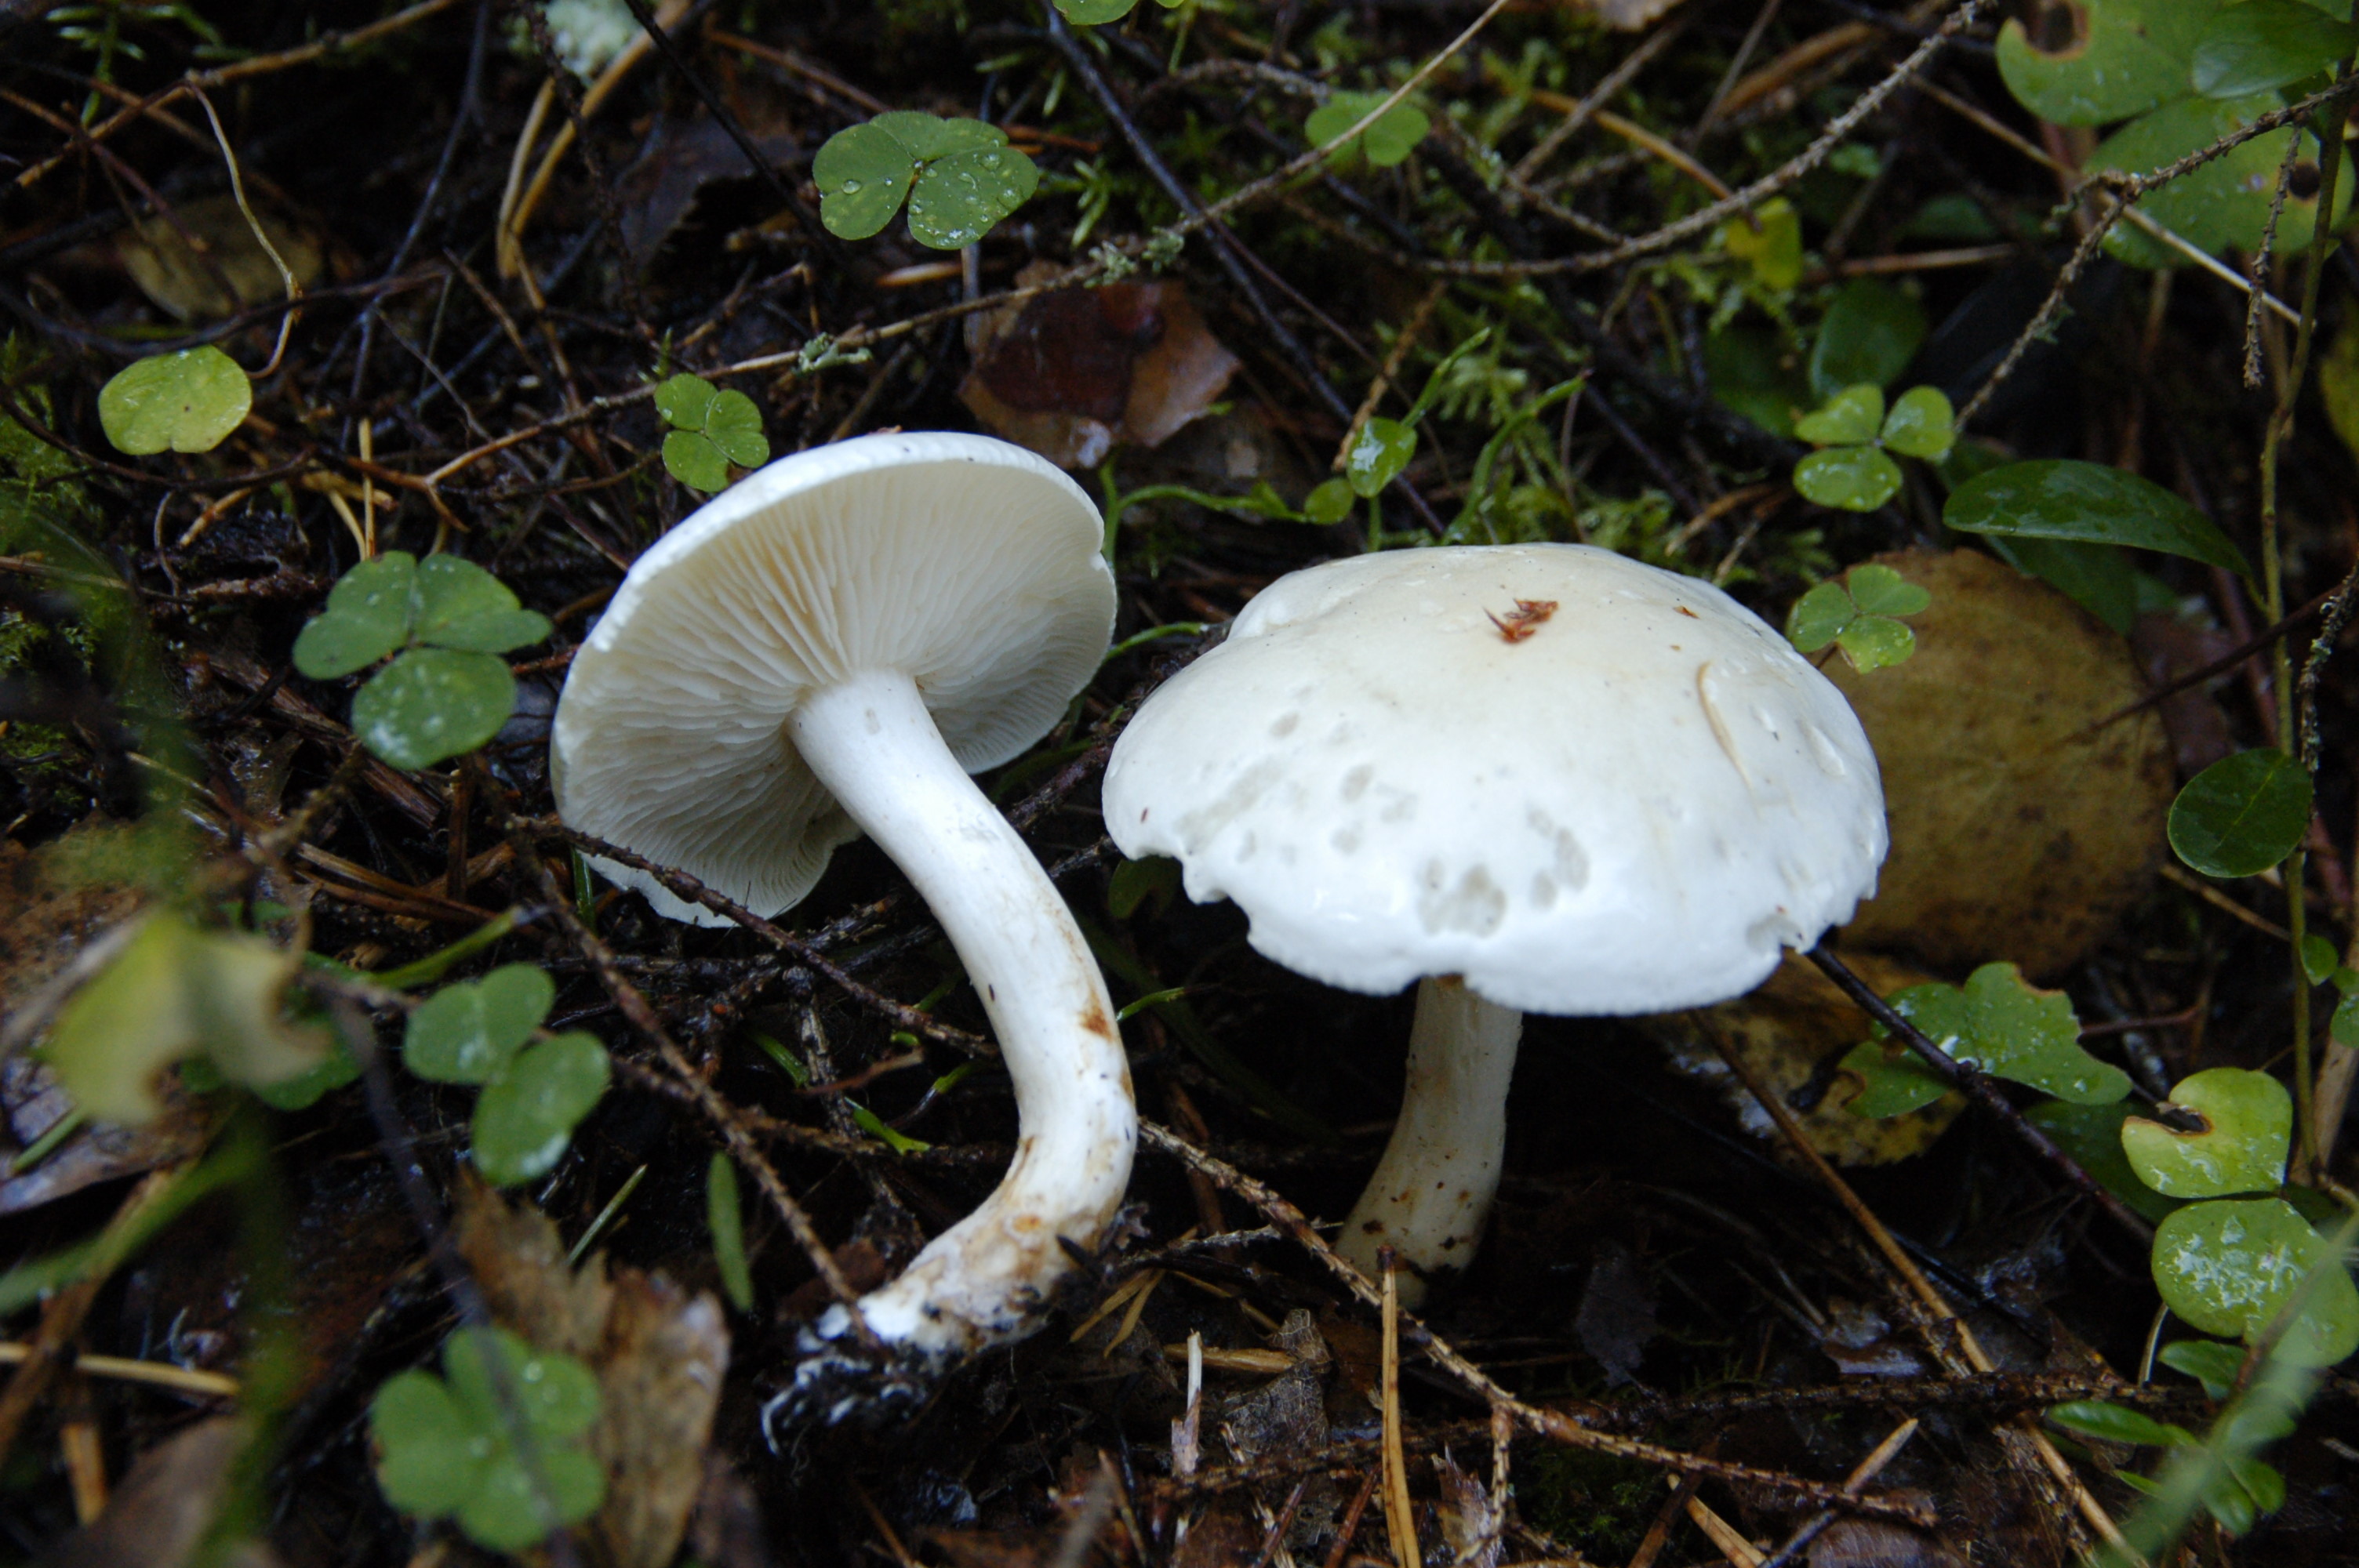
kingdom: Fungi
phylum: Basidiomycota
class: Agaricomycetes
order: Agaricales
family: Tricholomataceae
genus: Tricholoma
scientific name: Tricholoma stiparophyllum
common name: Chemical knight
